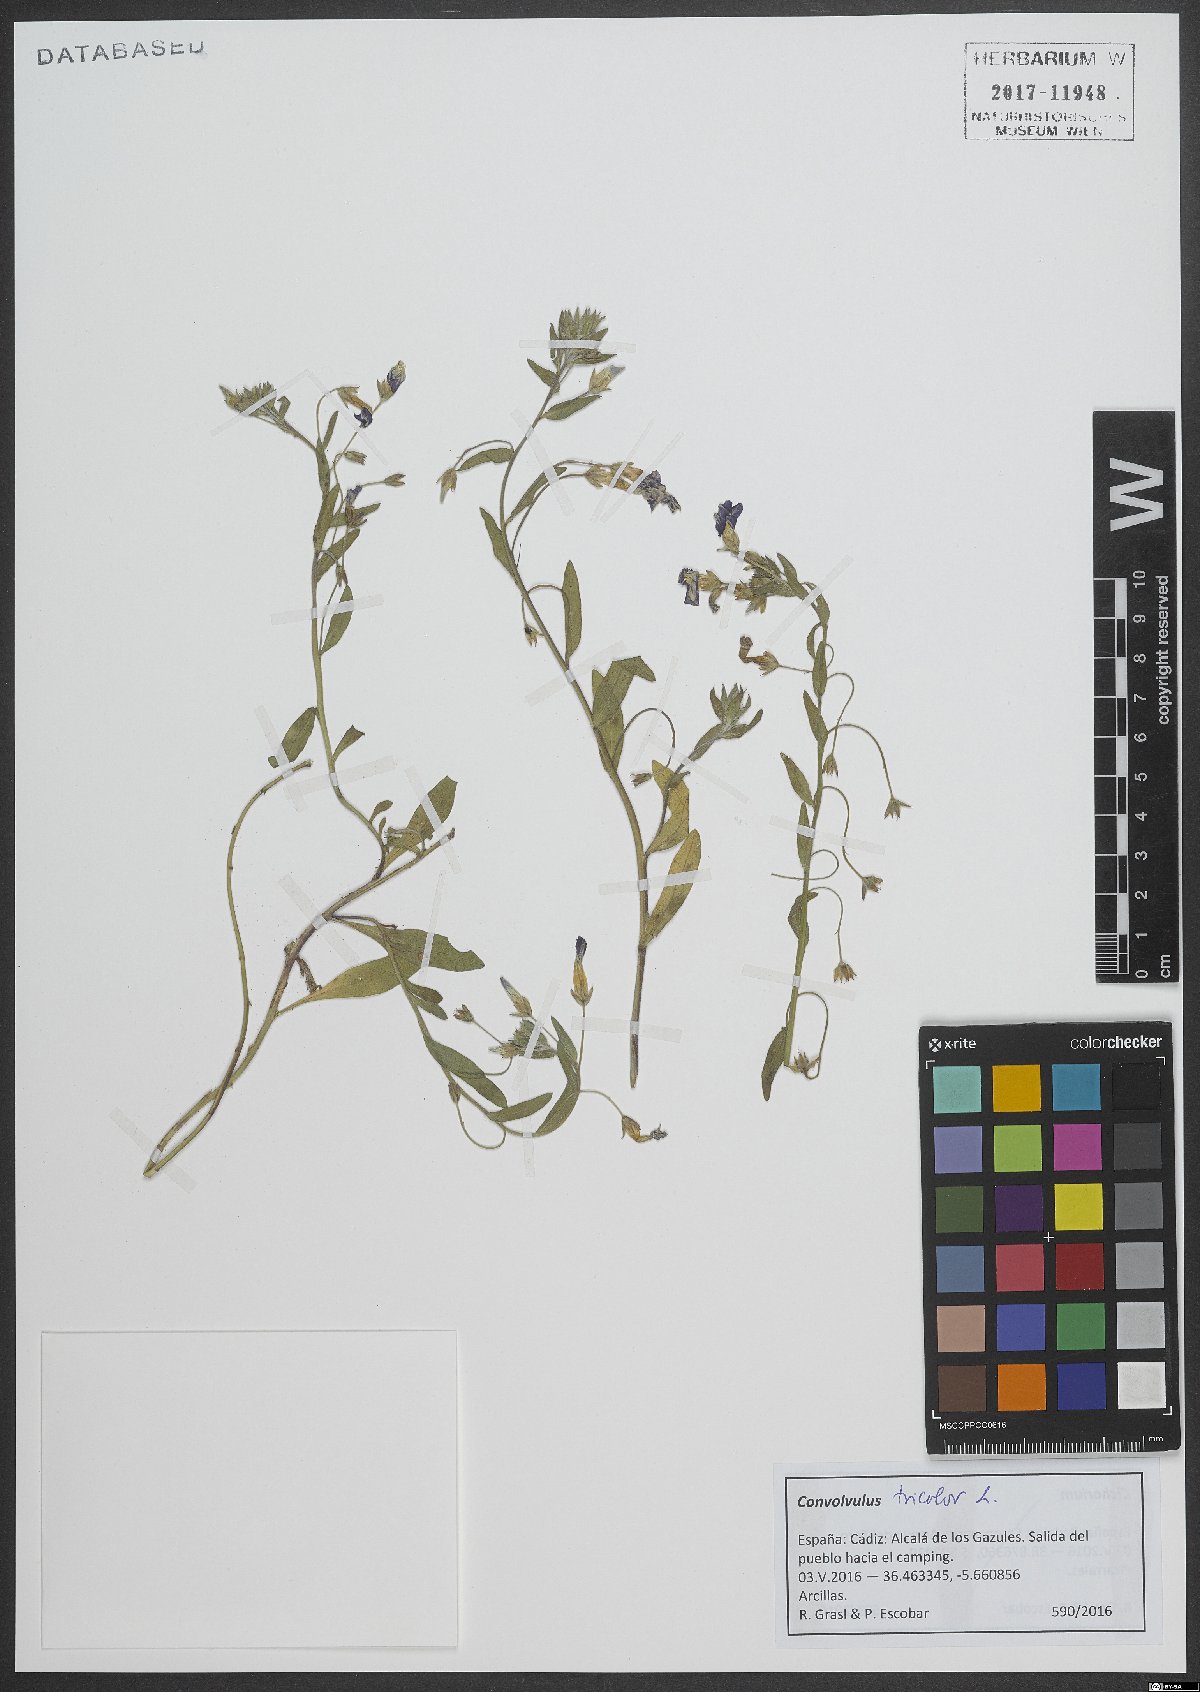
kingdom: Plantae
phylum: Tracheophyta
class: Magnoliopsida
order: Solanales
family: Convolvulaceae
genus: Convolvulus
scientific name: Convolvulus tricolor
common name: Dwarf morning-glory
